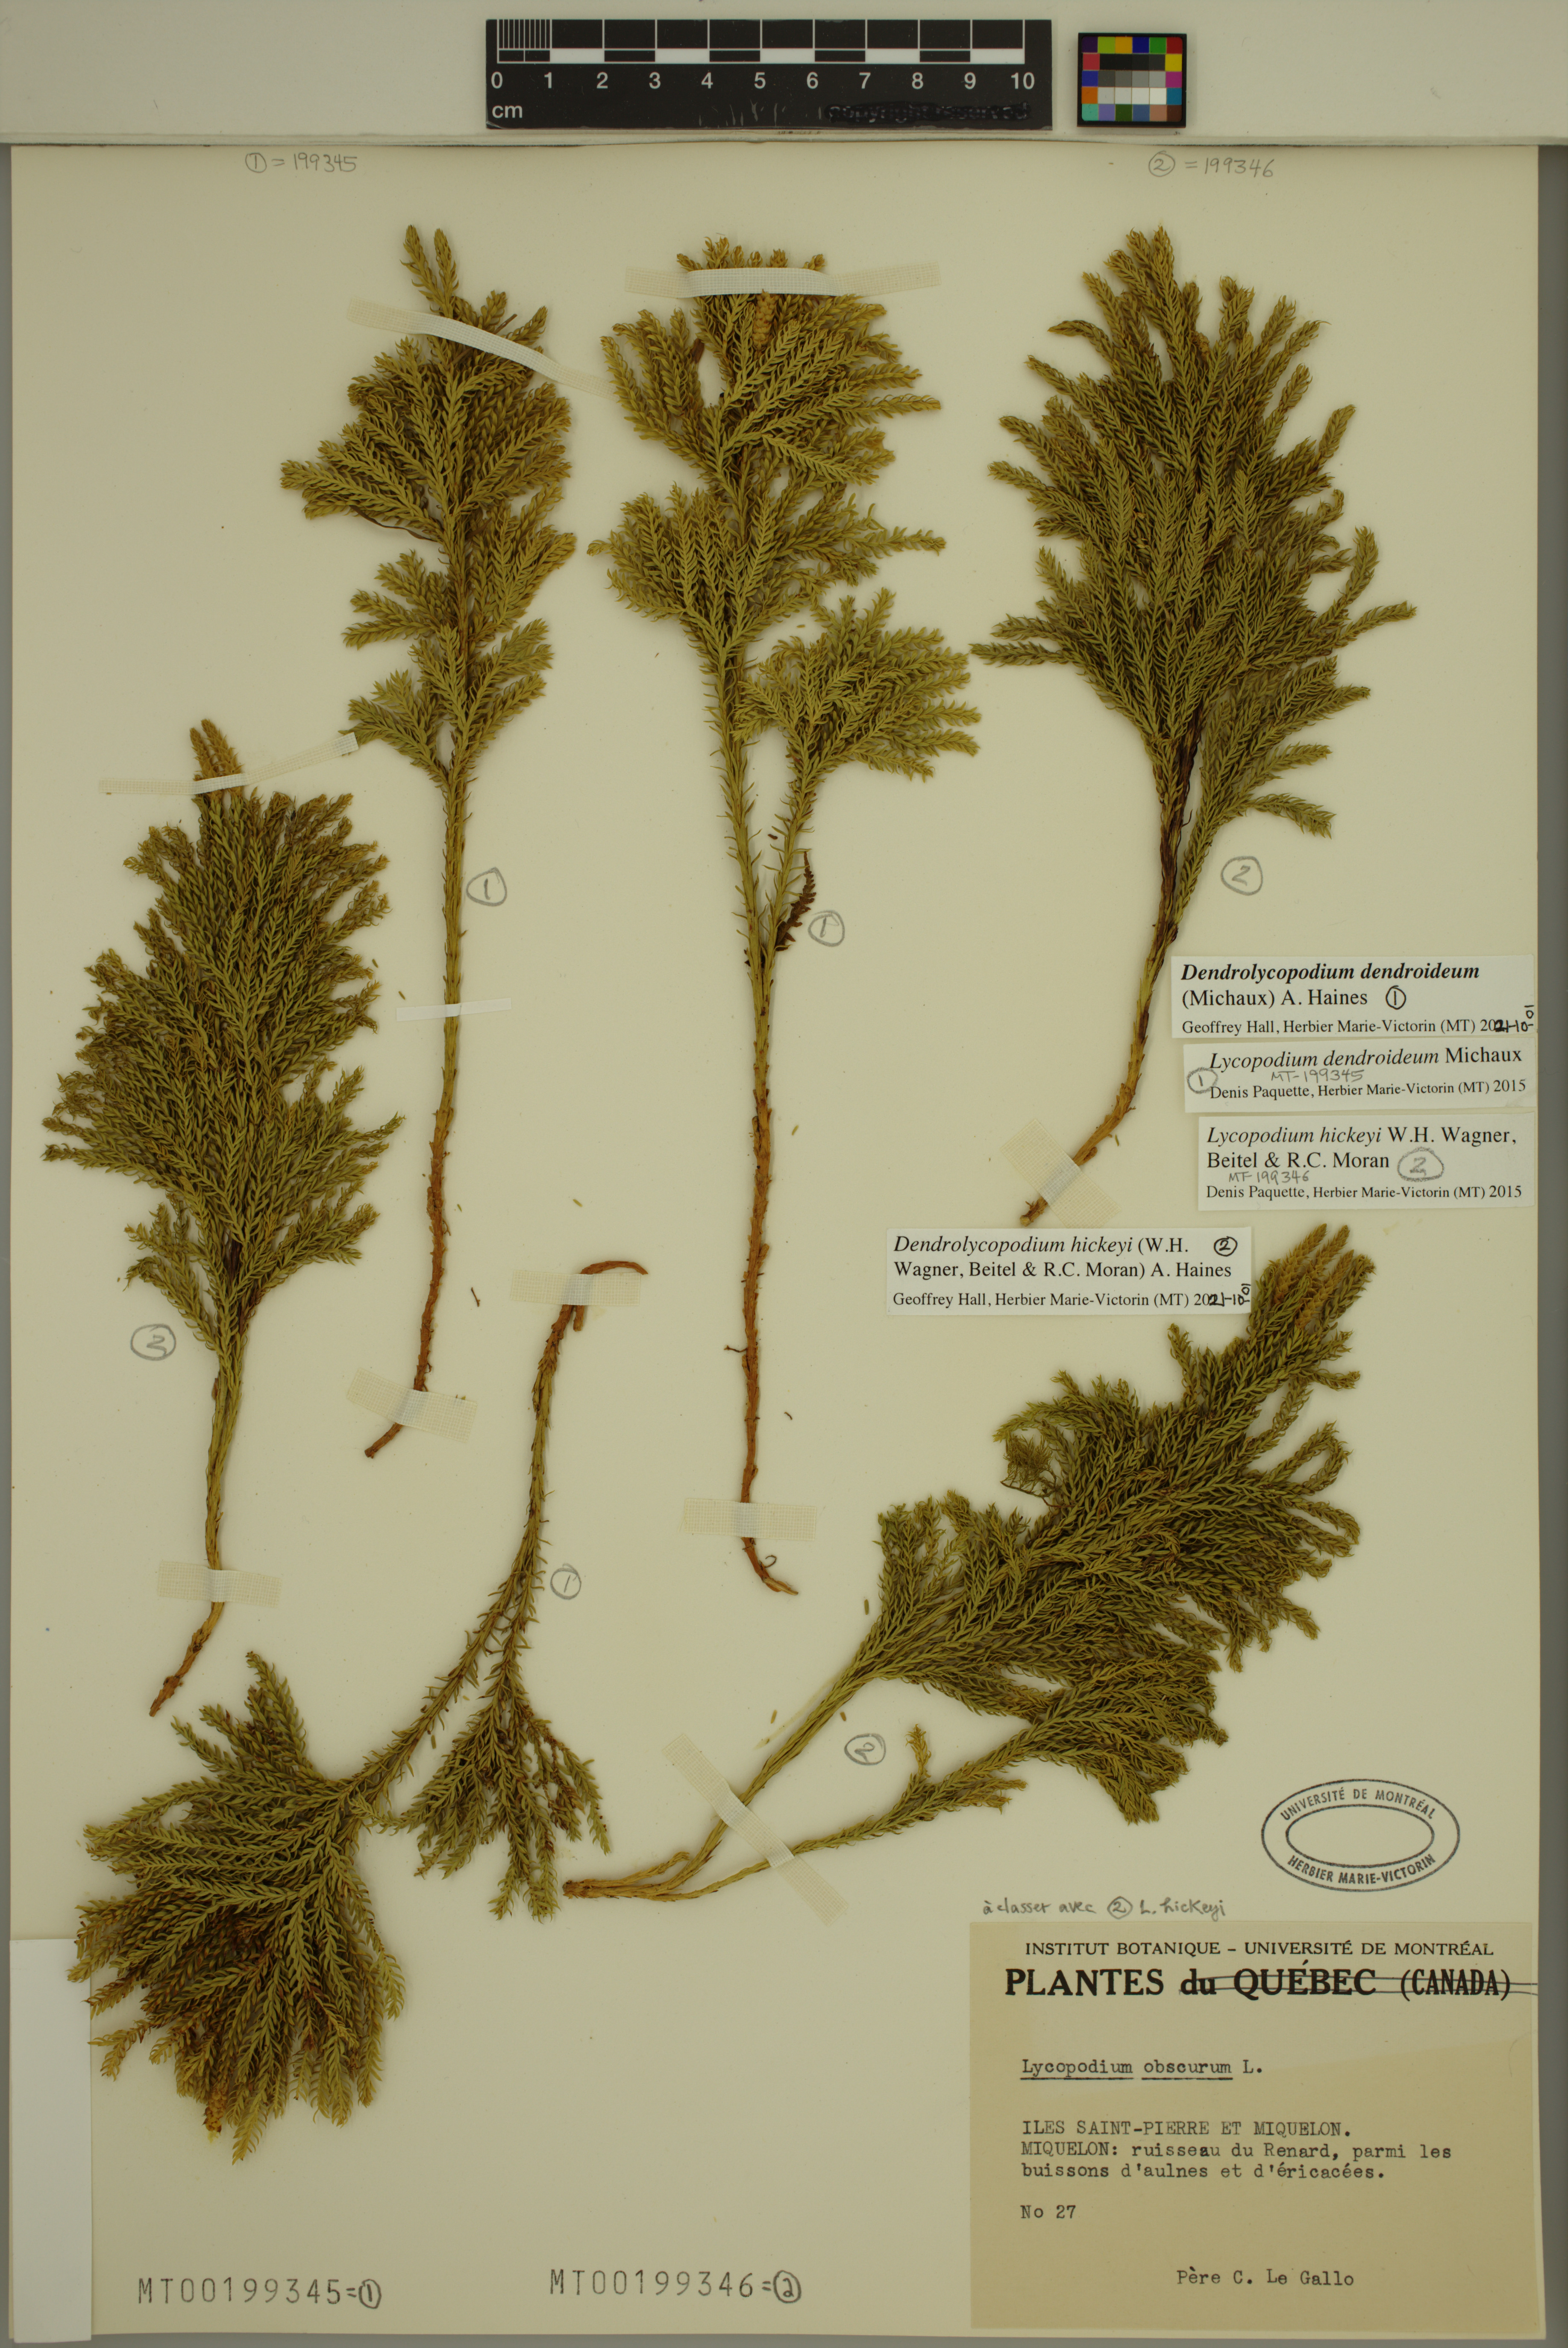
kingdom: Plantae
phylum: Tracheophyta
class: Lycopodiopsida
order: Lycopodiales
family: Lycopodiaceae
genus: Dendrolycopodium
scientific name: Dendrolycopodium dendroideum
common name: Northern tree-clubmoss
